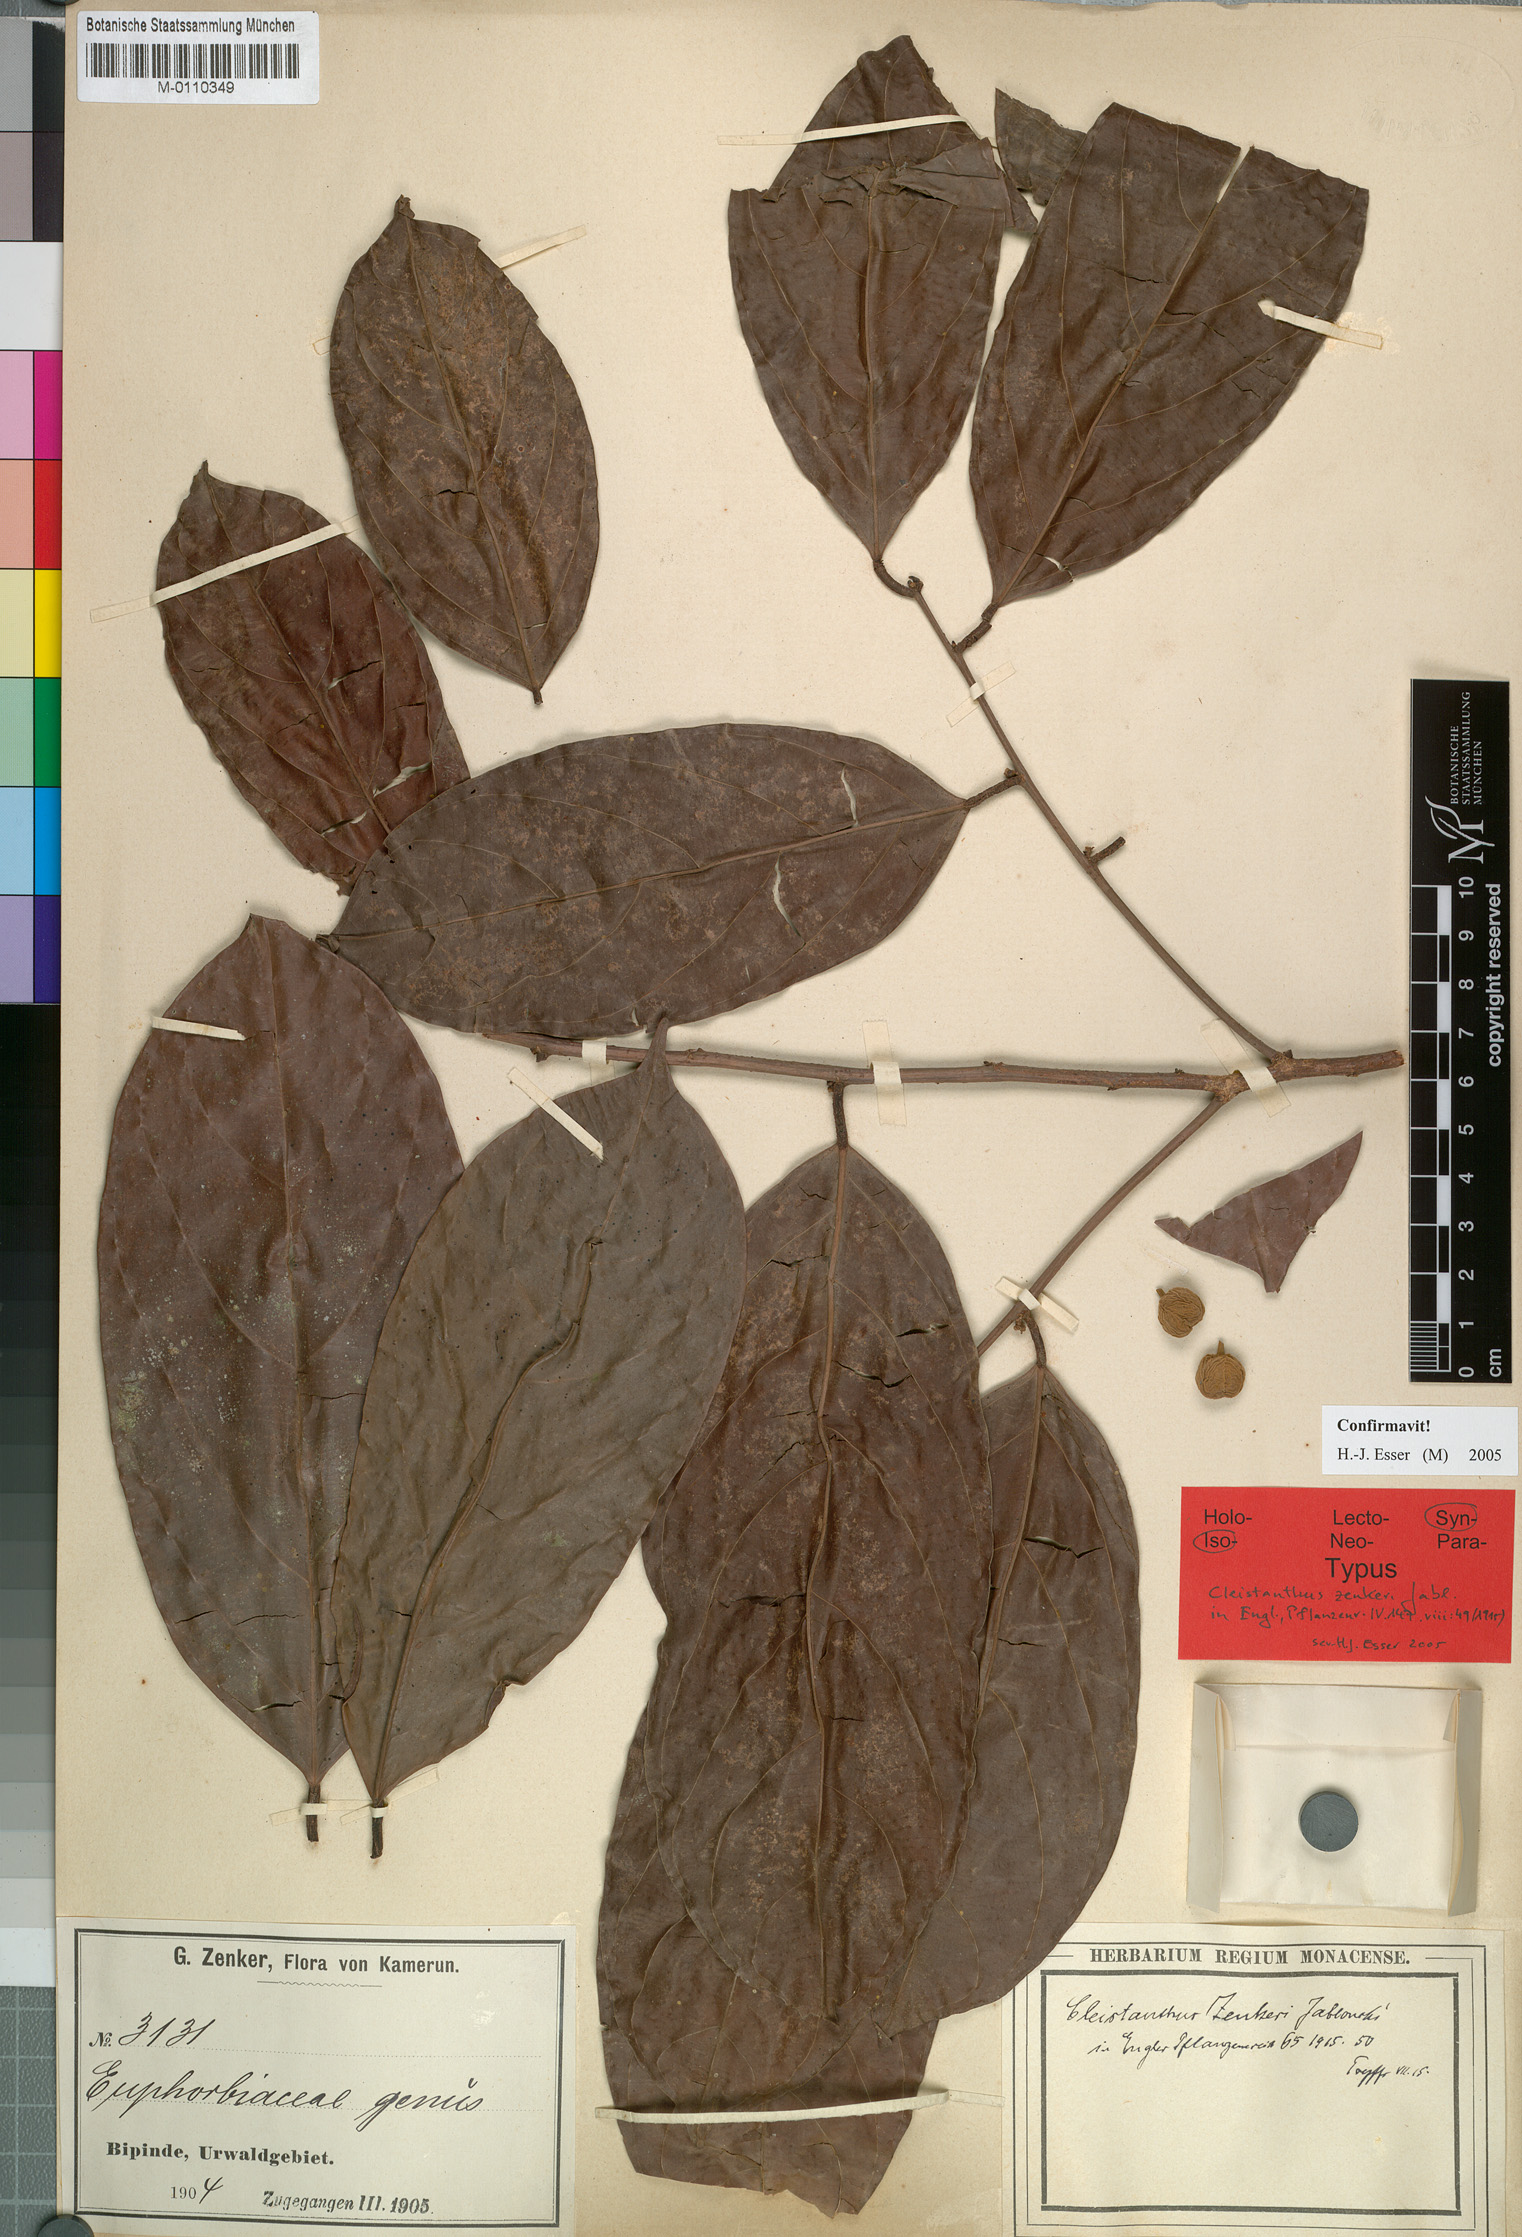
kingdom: Plantae
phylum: Tracheophyta
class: Magnoliopsida
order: Malpighiales
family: Phyllanthaceae
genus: Cleistanthus
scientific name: Cleistanthus zenkeri
